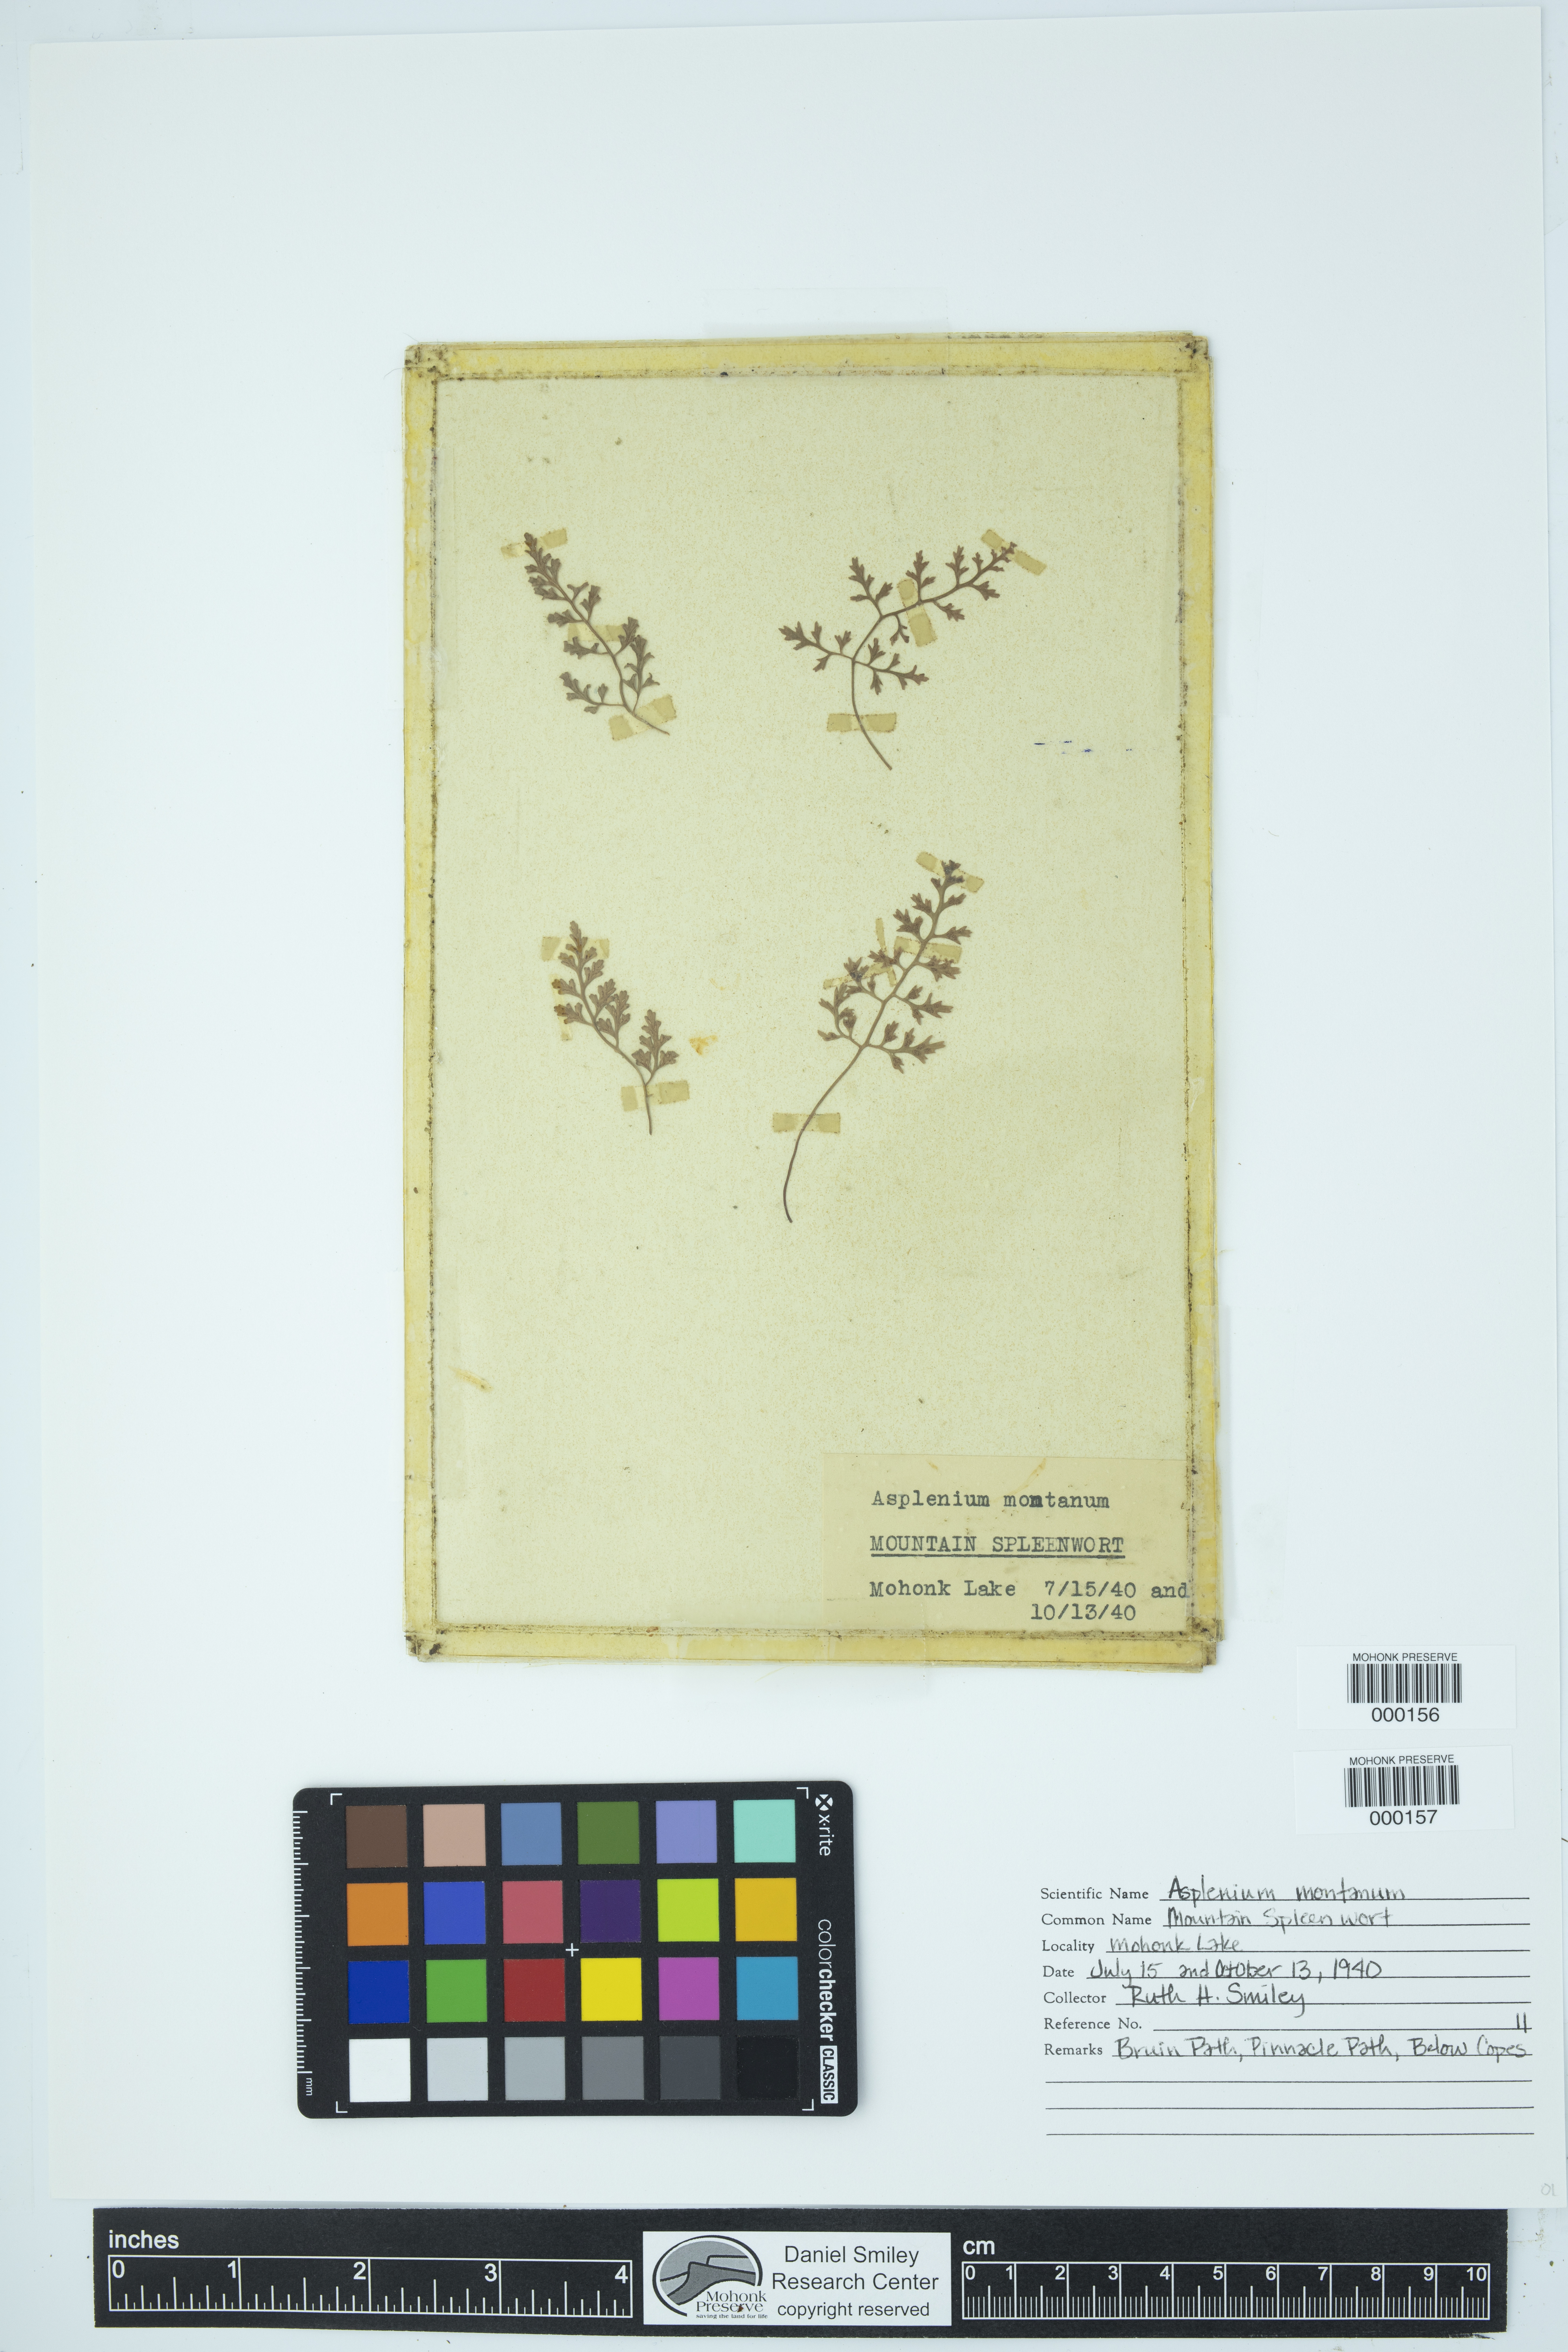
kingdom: Plantae
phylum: Tracheophyta
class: Polypodiopsida
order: Polypodiales
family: Aspleniaceae
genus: Asplenium
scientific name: Asplenium montanum
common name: Mountain spleenwort
